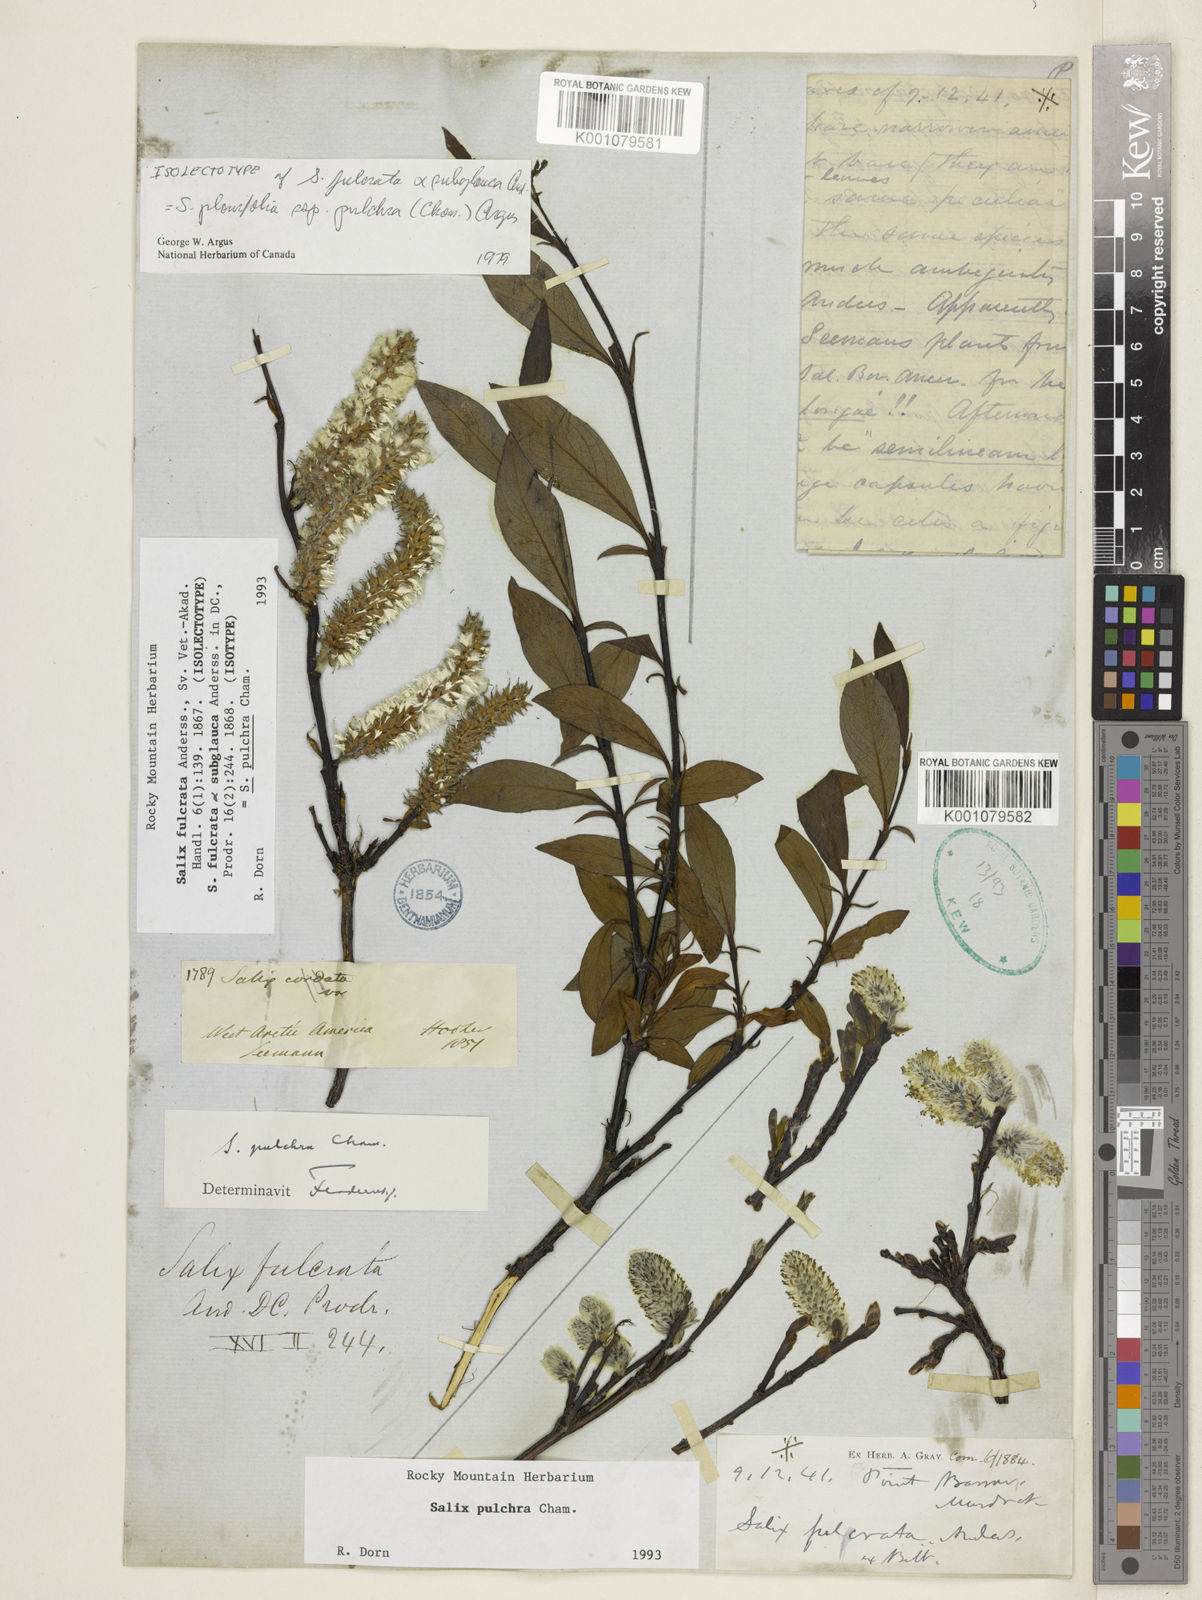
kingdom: Plantae
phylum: Tracheophyta
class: Magnoliopsida
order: Malpighiales
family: Salicaceae
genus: Salix
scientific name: Salix pulchra
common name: Diamond-leaved willow
